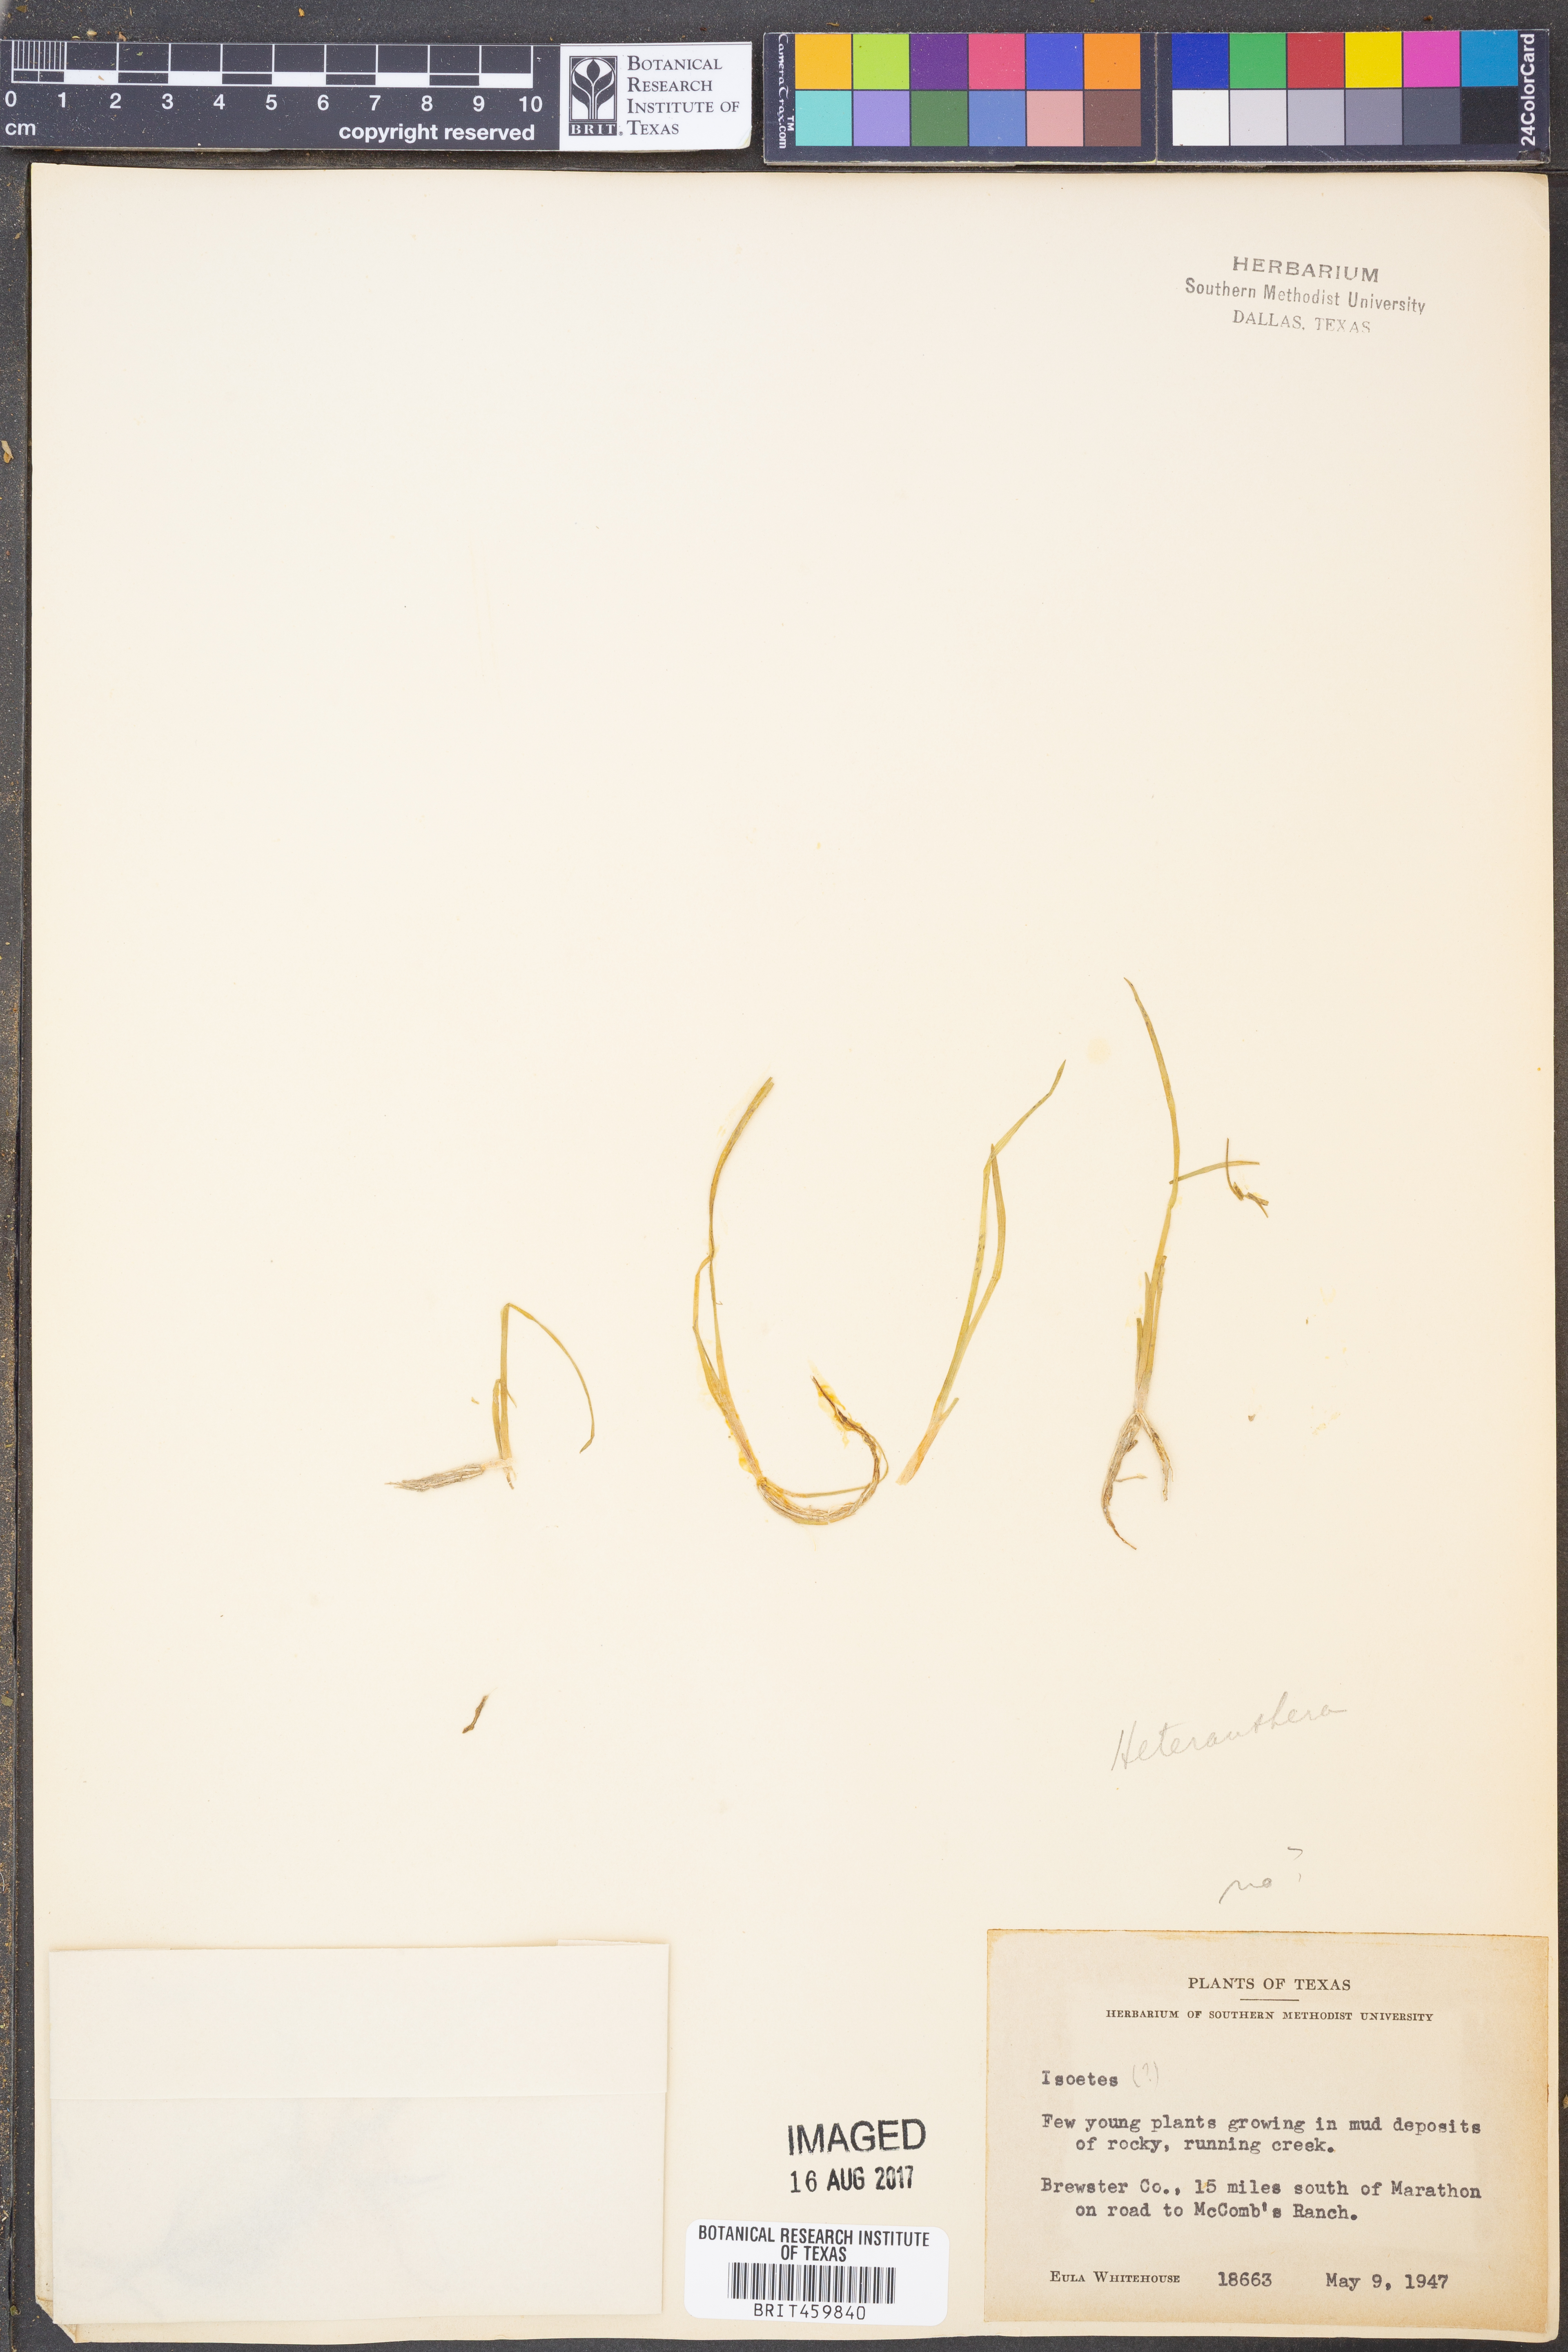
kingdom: Plantae
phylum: Tracheophyta
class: Lycopodiopsida
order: Isoetales
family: Isoetaceae
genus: Isoetes
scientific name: Isoetes
